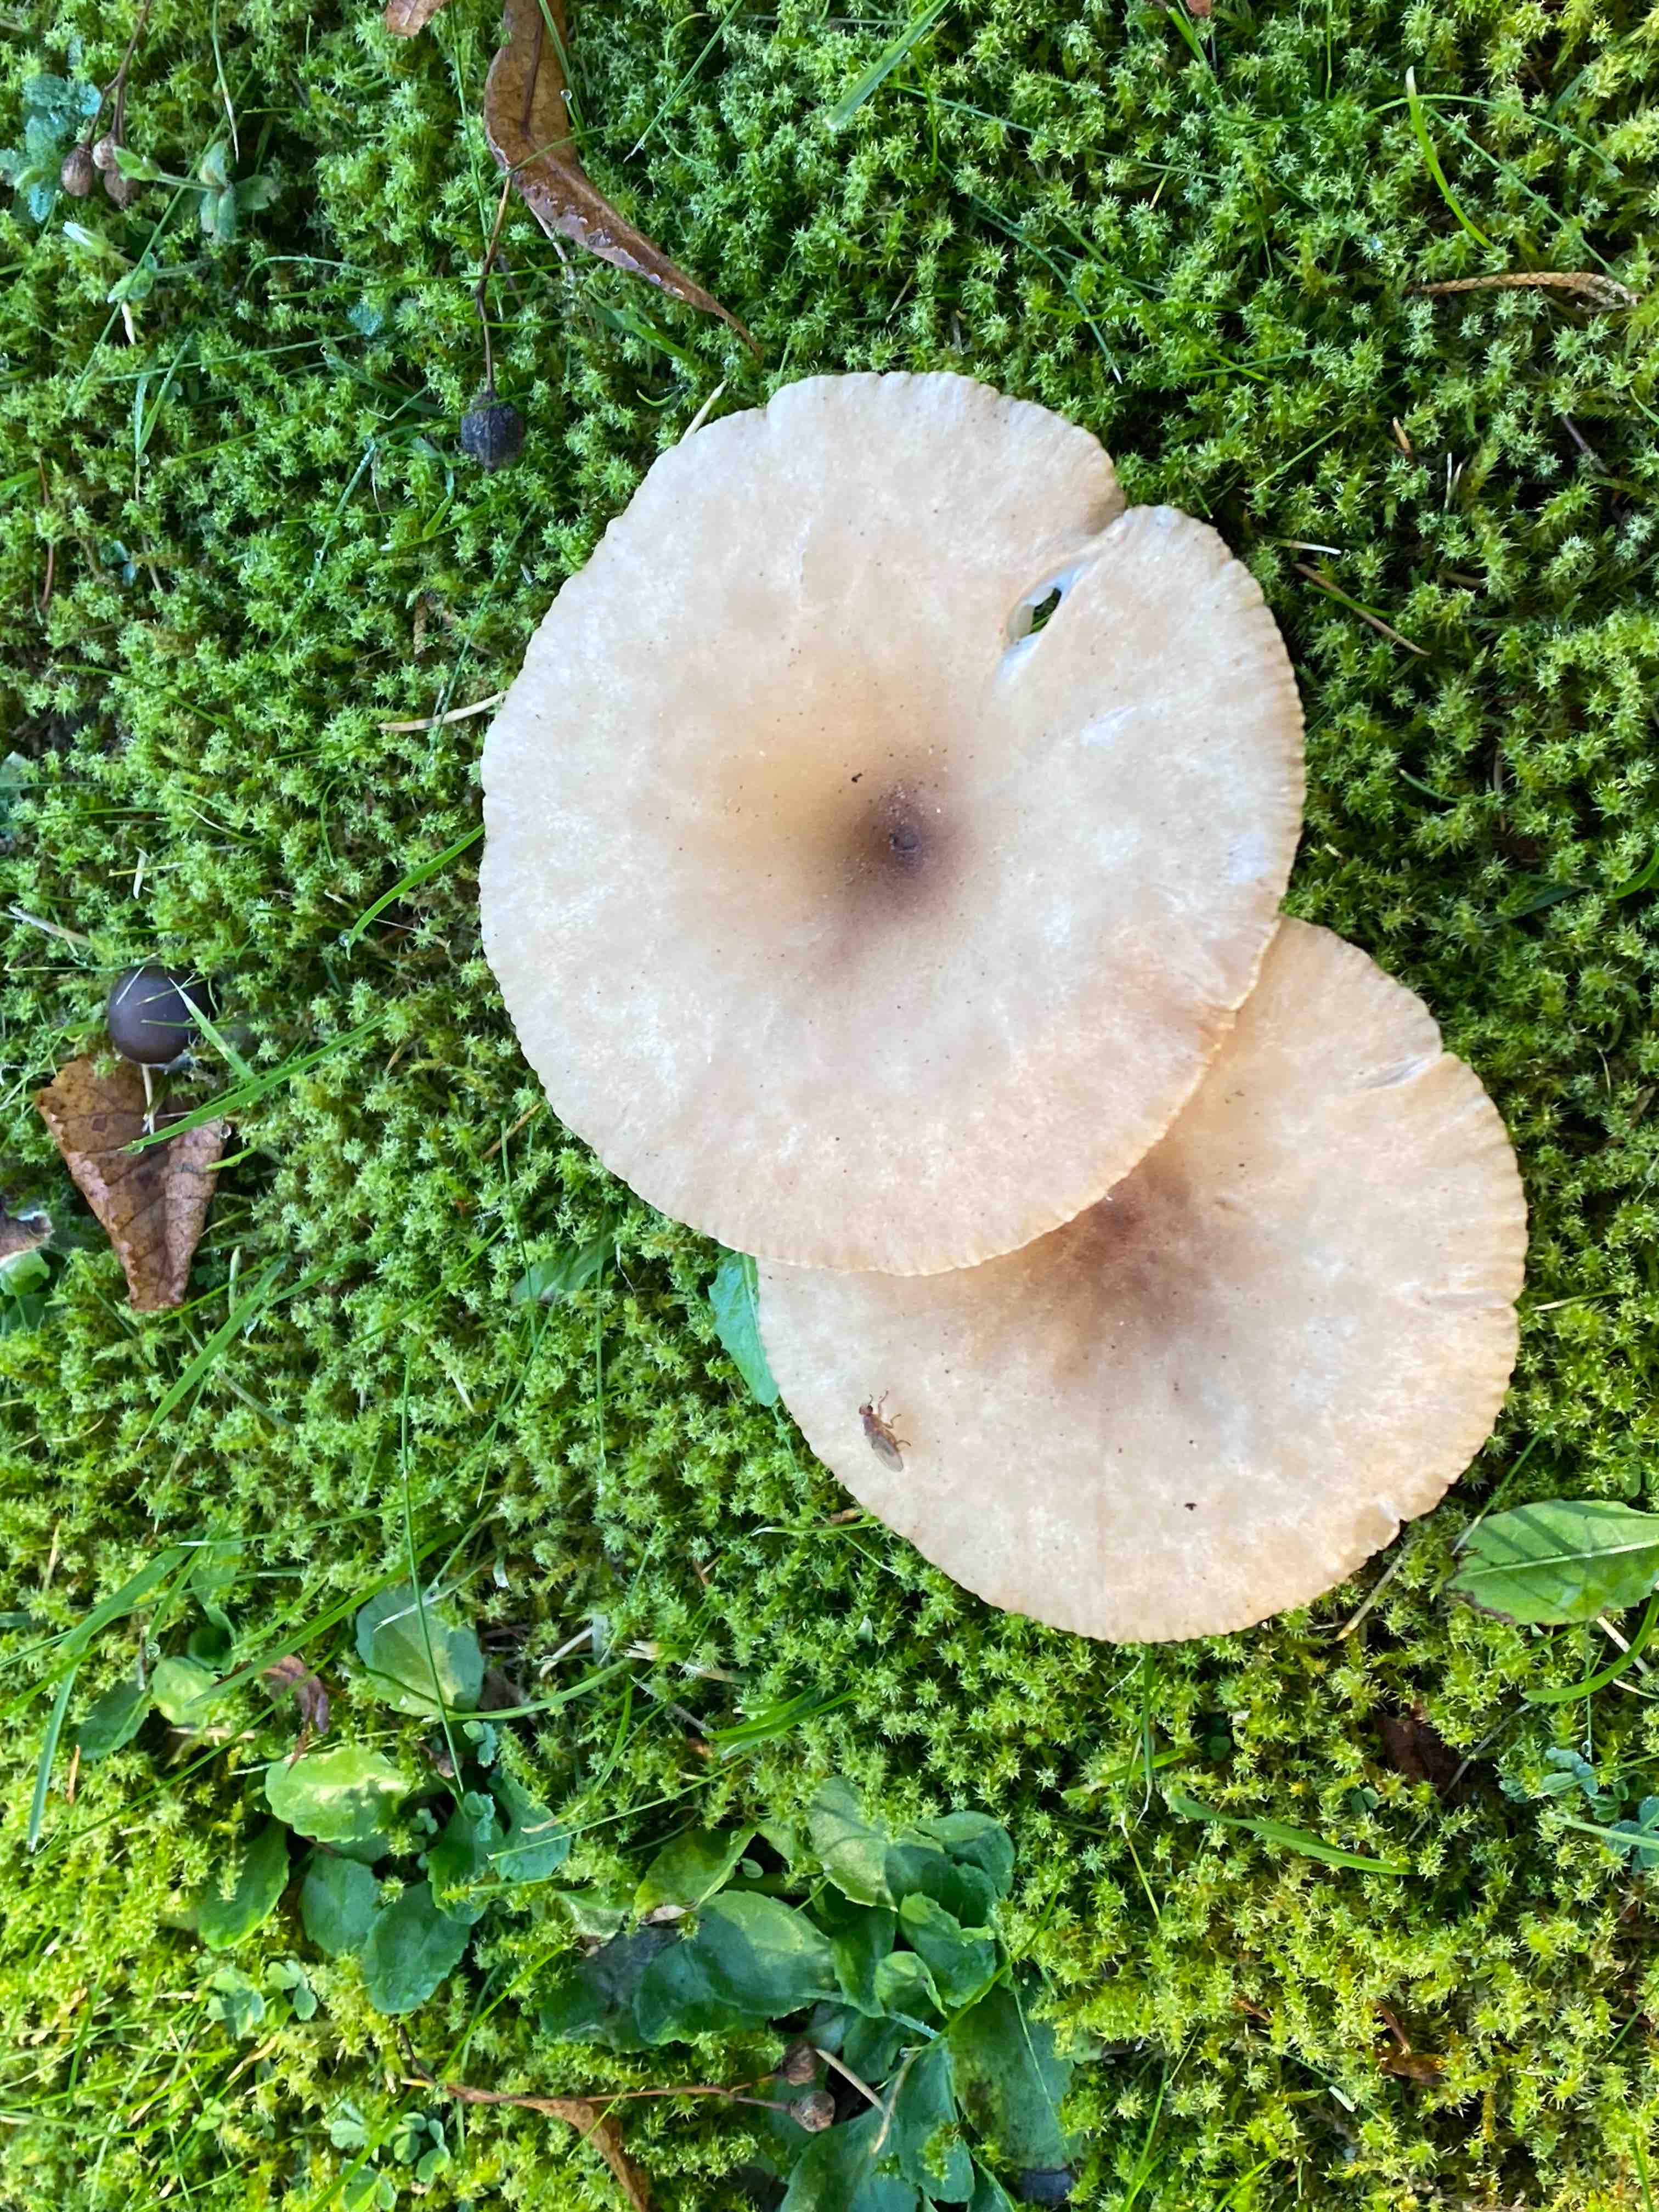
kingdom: Fungi
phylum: Basidiomycota
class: Agaricomycetes
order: Agaricales
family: Tricholomataceae
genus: Infundibulicybe
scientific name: Infundibulicybe
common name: tragthat
